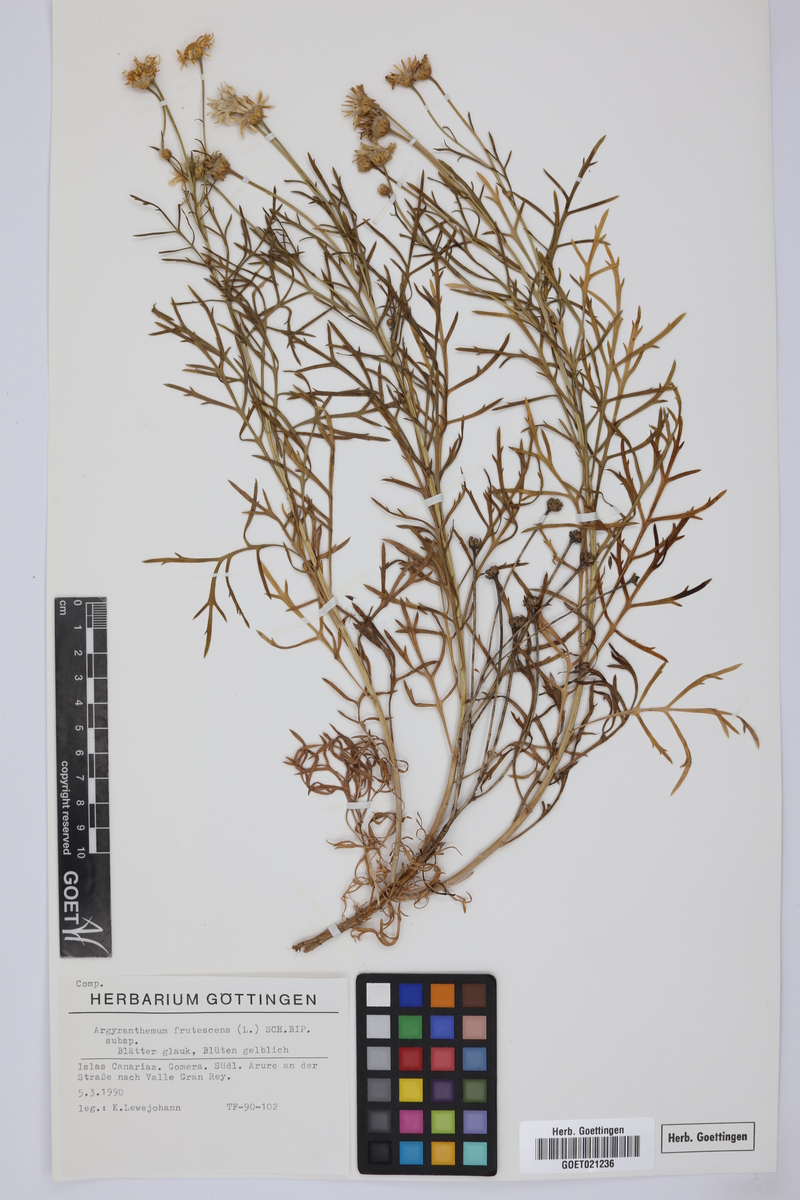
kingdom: Plantae
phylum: Tracheophyta
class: Magnoliopsida
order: Asterales
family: Asteraceae
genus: Argyranthemum
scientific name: Argyranthemum frutescens
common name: Paris daisy
